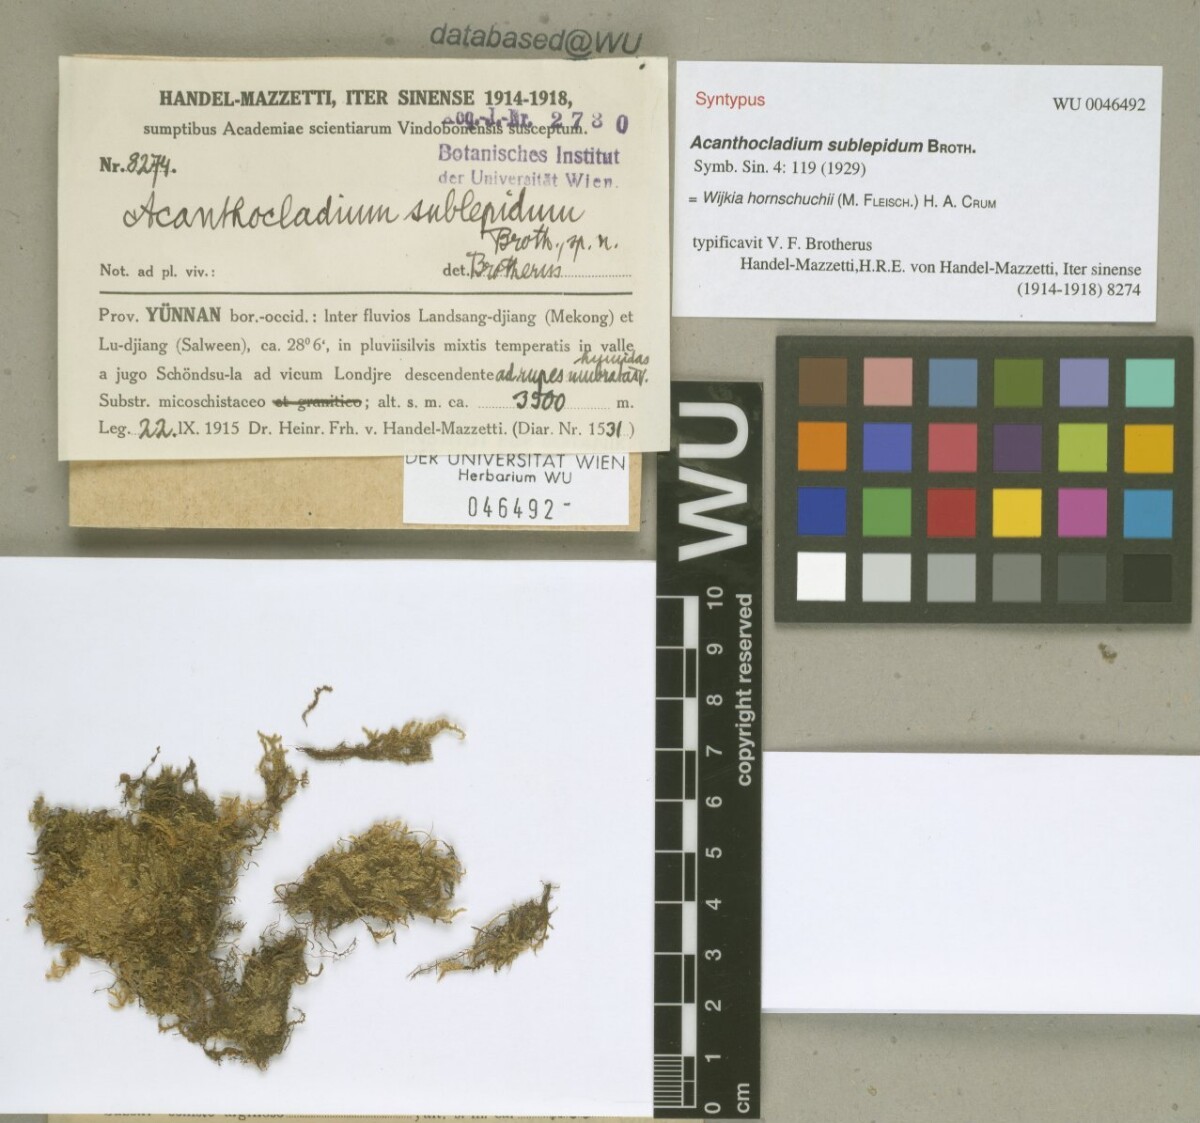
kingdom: Plantae
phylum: Bryophyta
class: Bryopsida
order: Hypnales
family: Pylaisiadelphaceae
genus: Wijkia
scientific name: Wijkia hornschuchii
